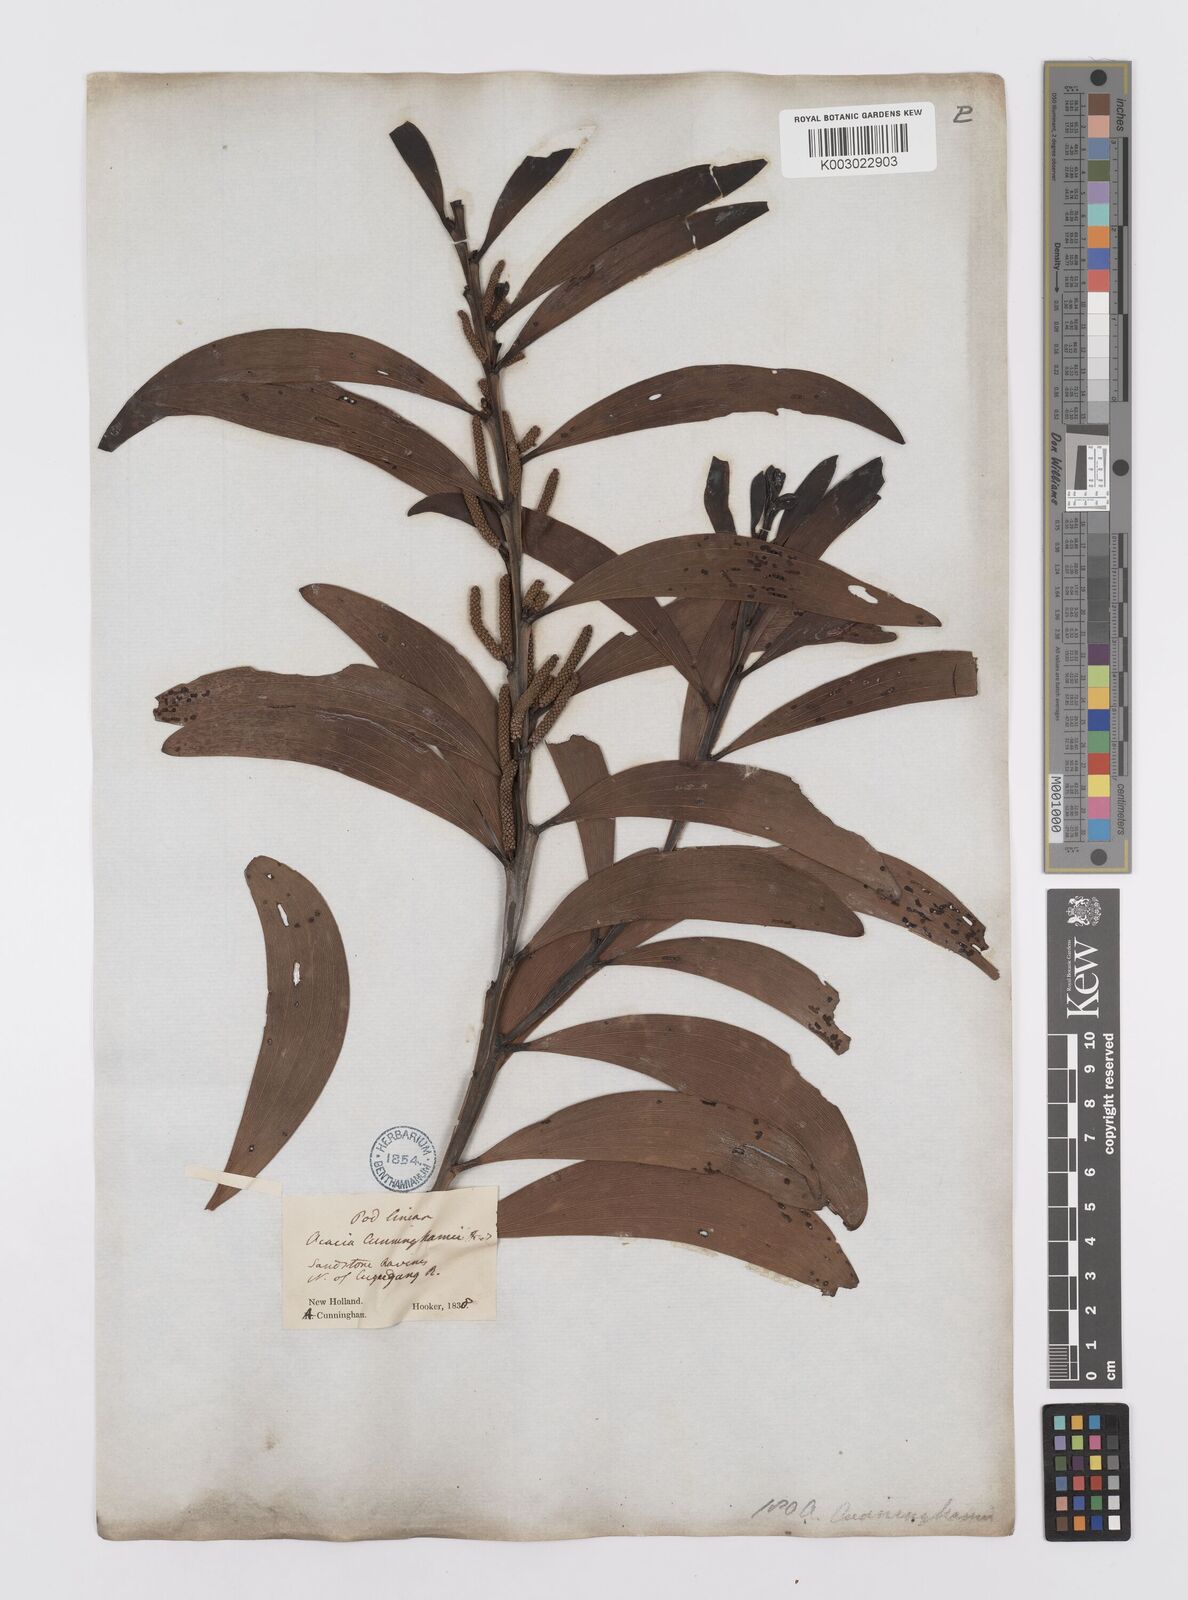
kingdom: Plantae
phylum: Tracheophyta
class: Magnoliopsida
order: Fabales
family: Fabaceae
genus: Acacia
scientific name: Acacia longispicata
